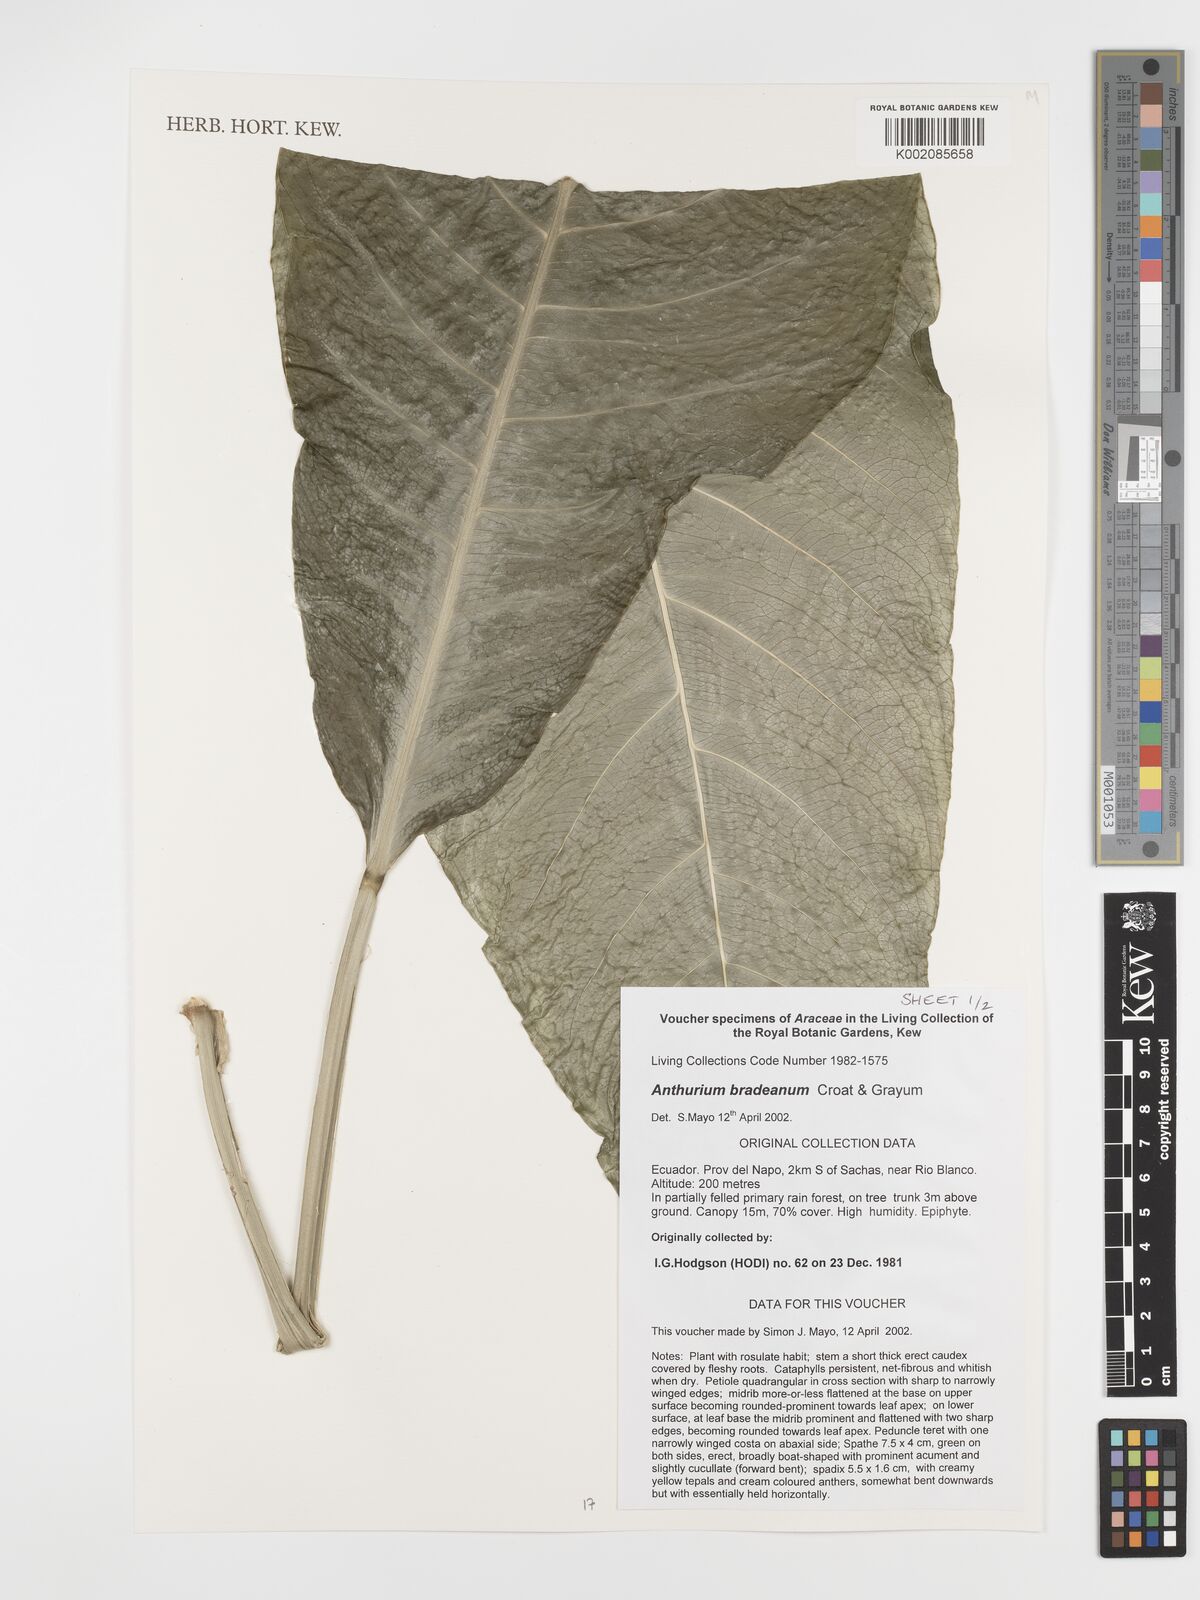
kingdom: Plantae
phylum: Tracheophyta
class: Liliopsida
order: Alismatales
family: Araceae
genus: Anthurium
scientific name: Anthurium bradeanum
